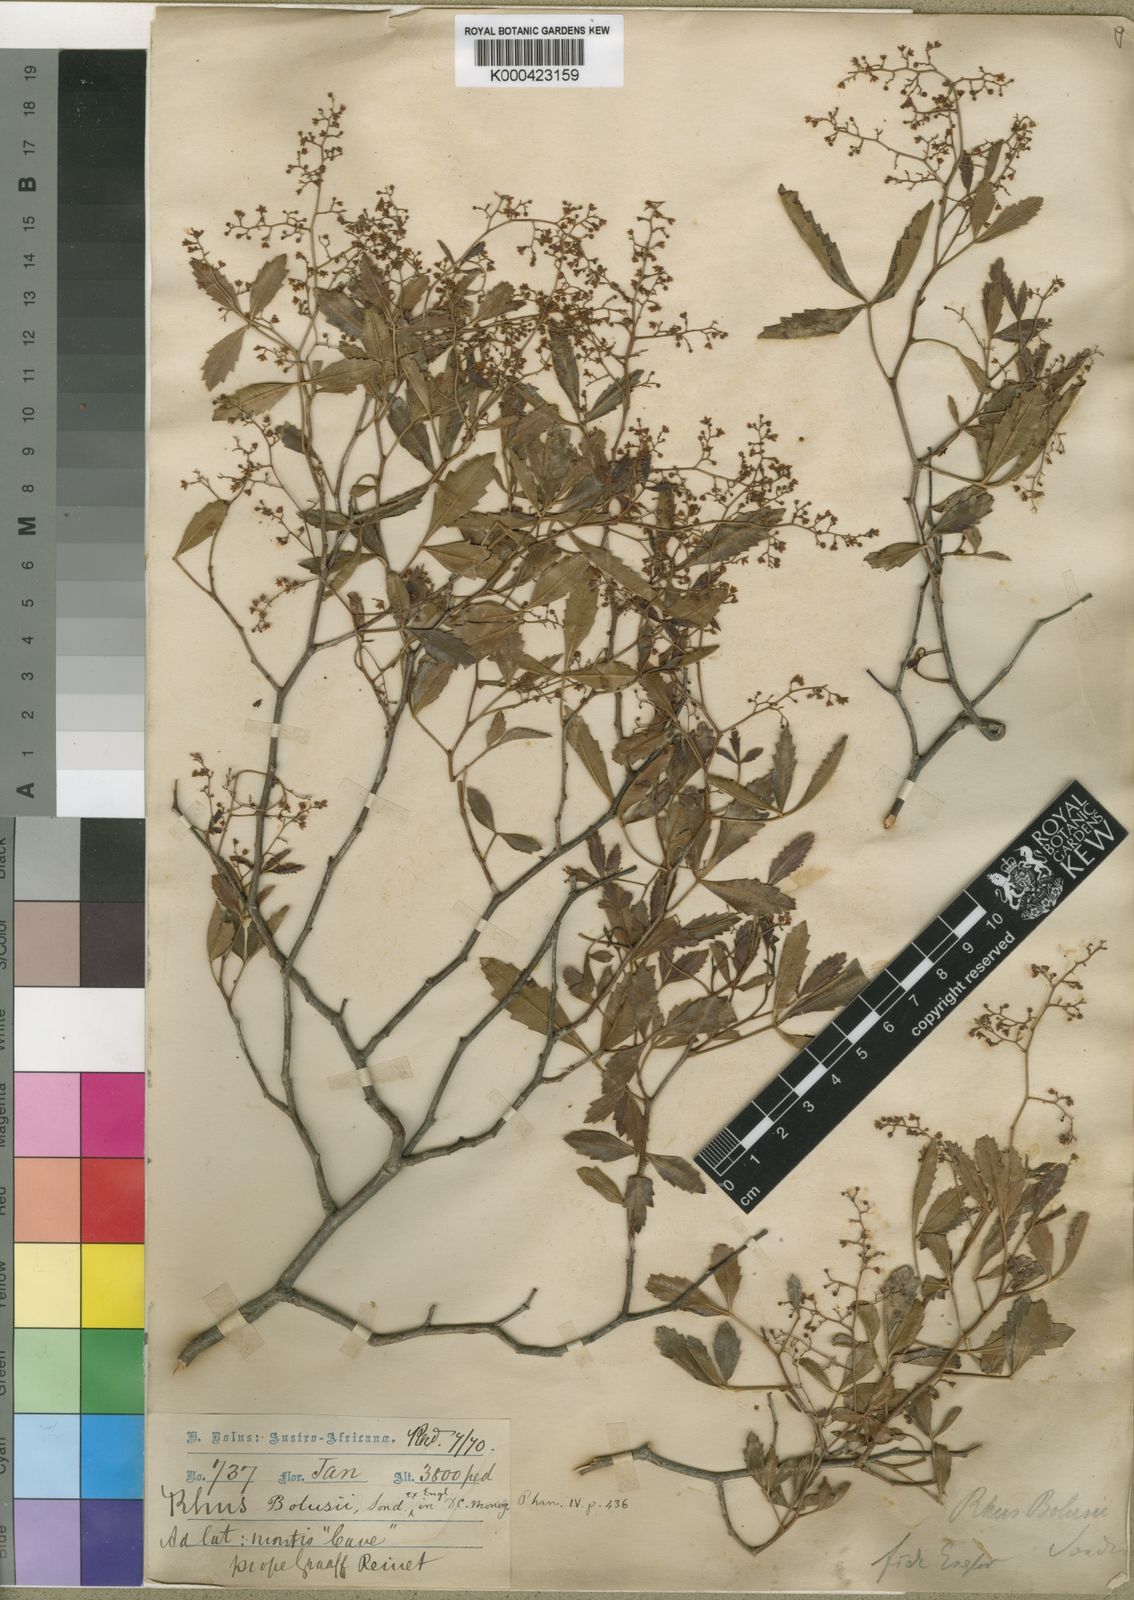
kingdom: Plantae
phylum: Tracheophyta
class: Magnoliopsida
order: Sapindales
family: Anacardiaceae
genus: Searsia
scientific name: Searsia bolusii
